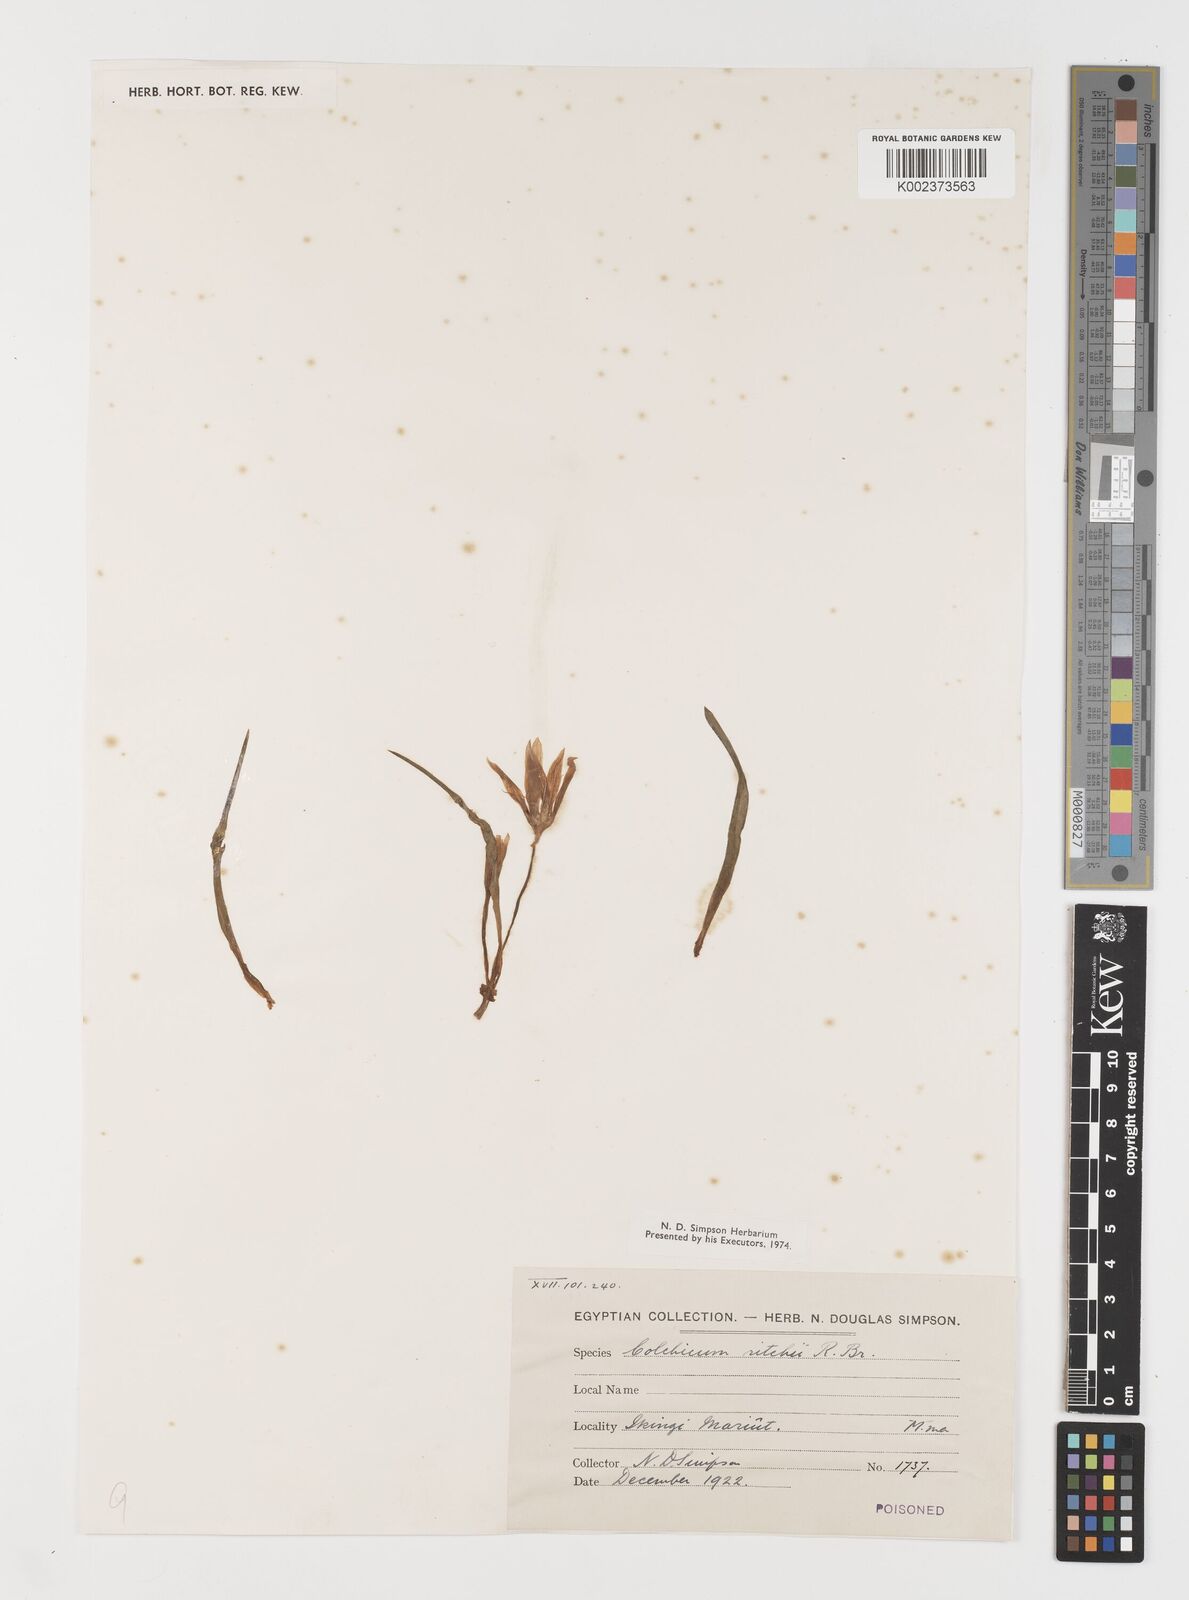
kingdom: Plantae
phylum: Tracheophyta
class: Liliopsida
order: Liliales
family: Colchicaceae
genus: Colchicum
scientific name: Colchicum ritchii
